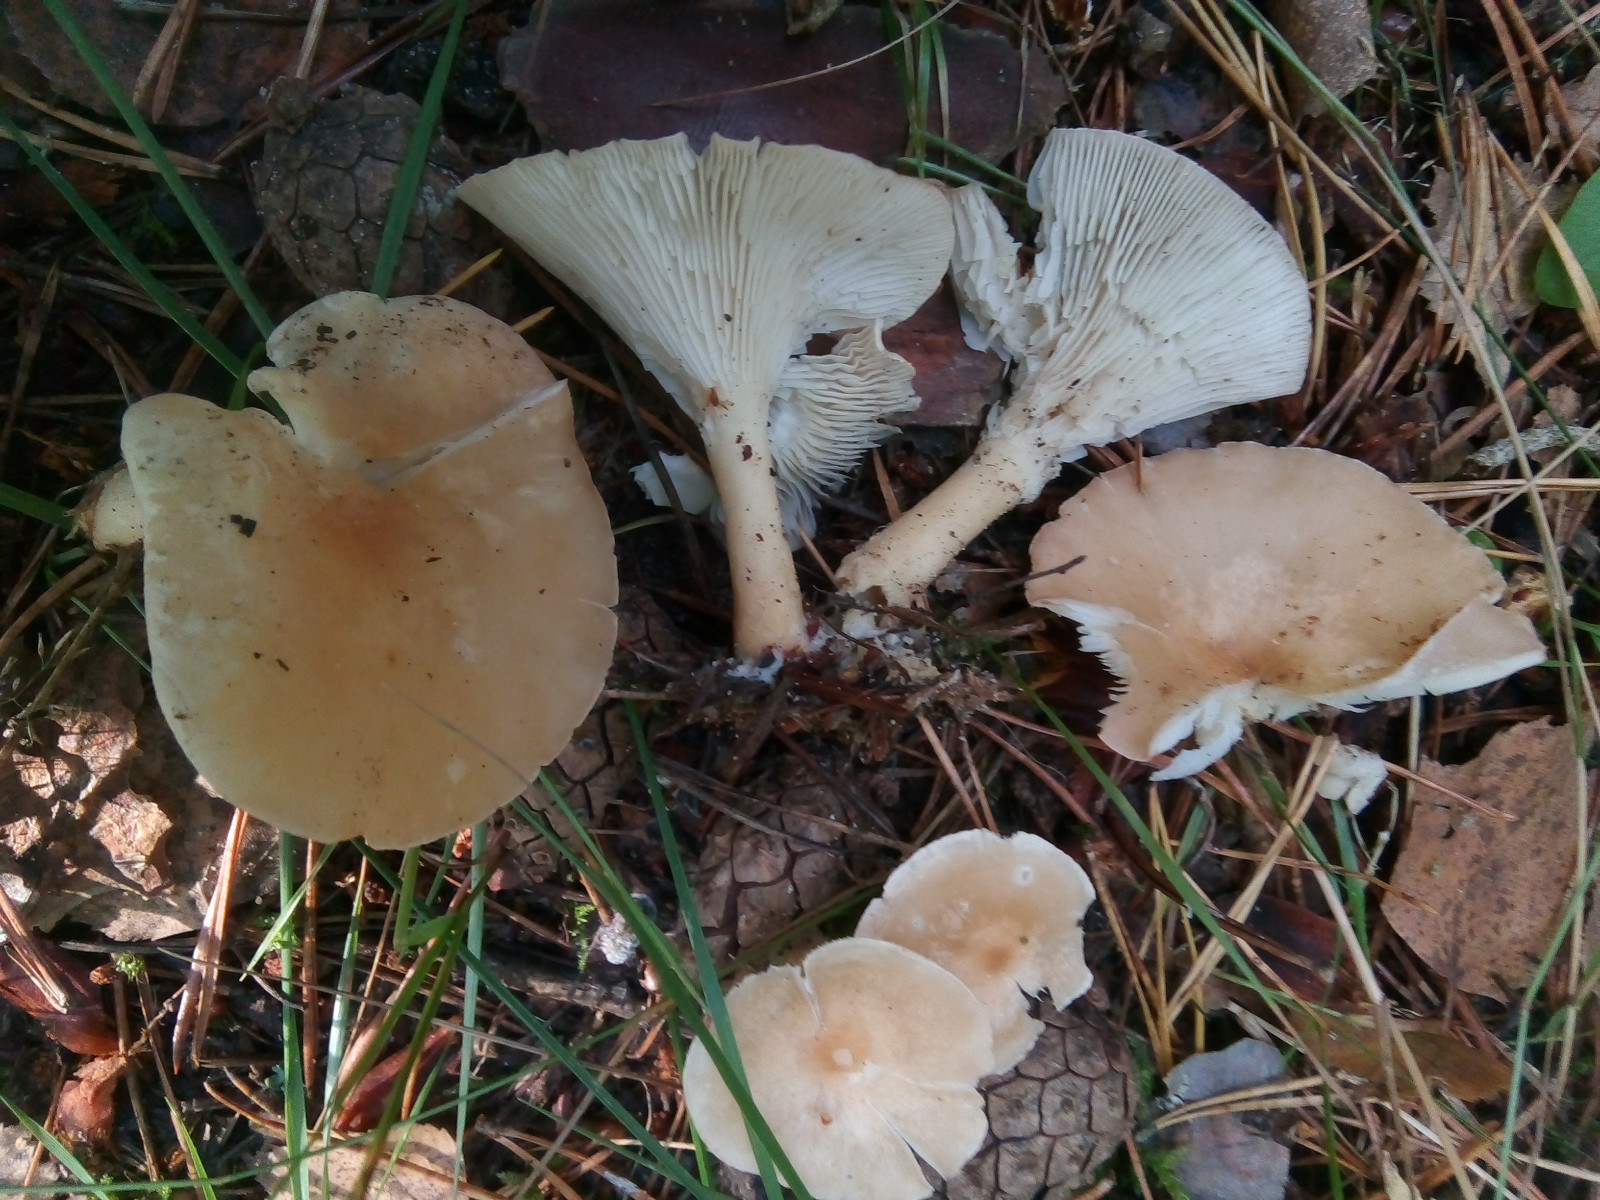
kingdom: Fungi
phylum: Basidiomycota
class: Agaricomycetes
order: Agaricales
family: Tricholomataceae
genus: Infundibulicybe
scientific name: Infundibulicybe gibba
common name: almindelig tragthat
